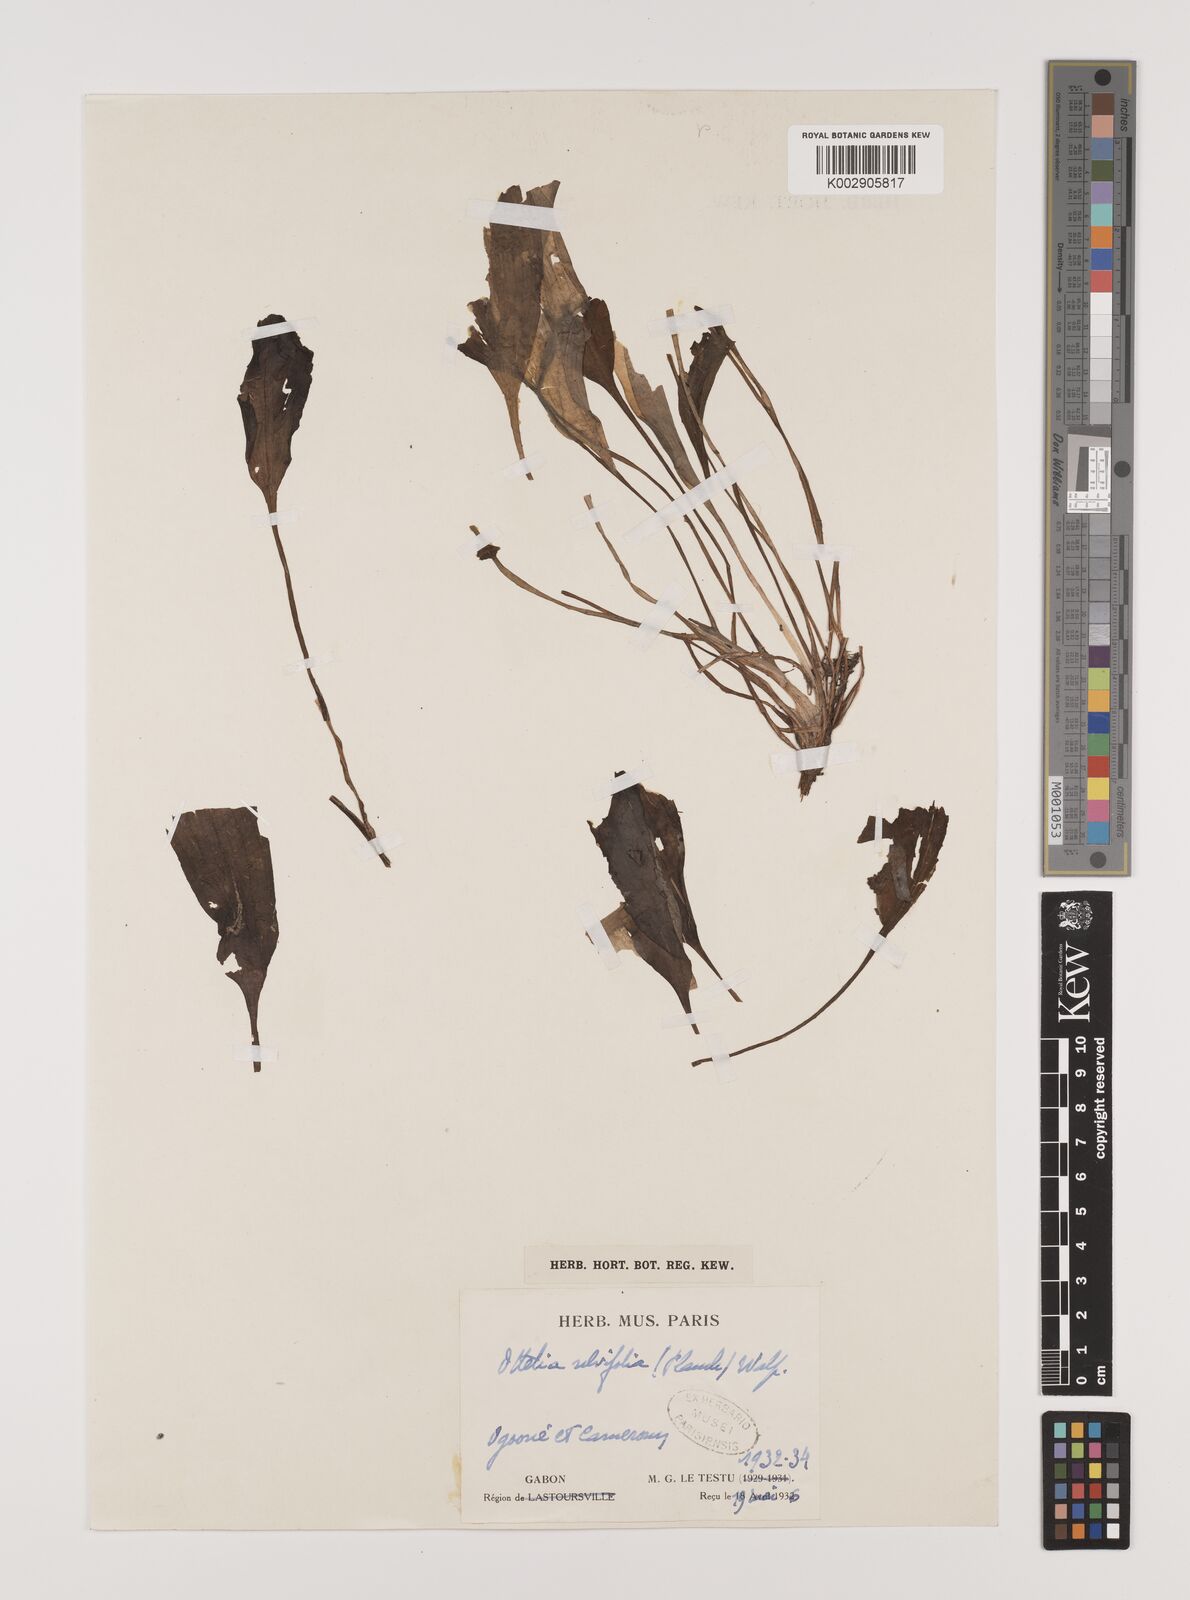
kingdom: Plantae
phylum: Tracheophyta
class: Liliopsida
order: Alismatales
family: Hydrocharitaceae
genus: Ottelia
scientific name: Ottelia ulvifolia
